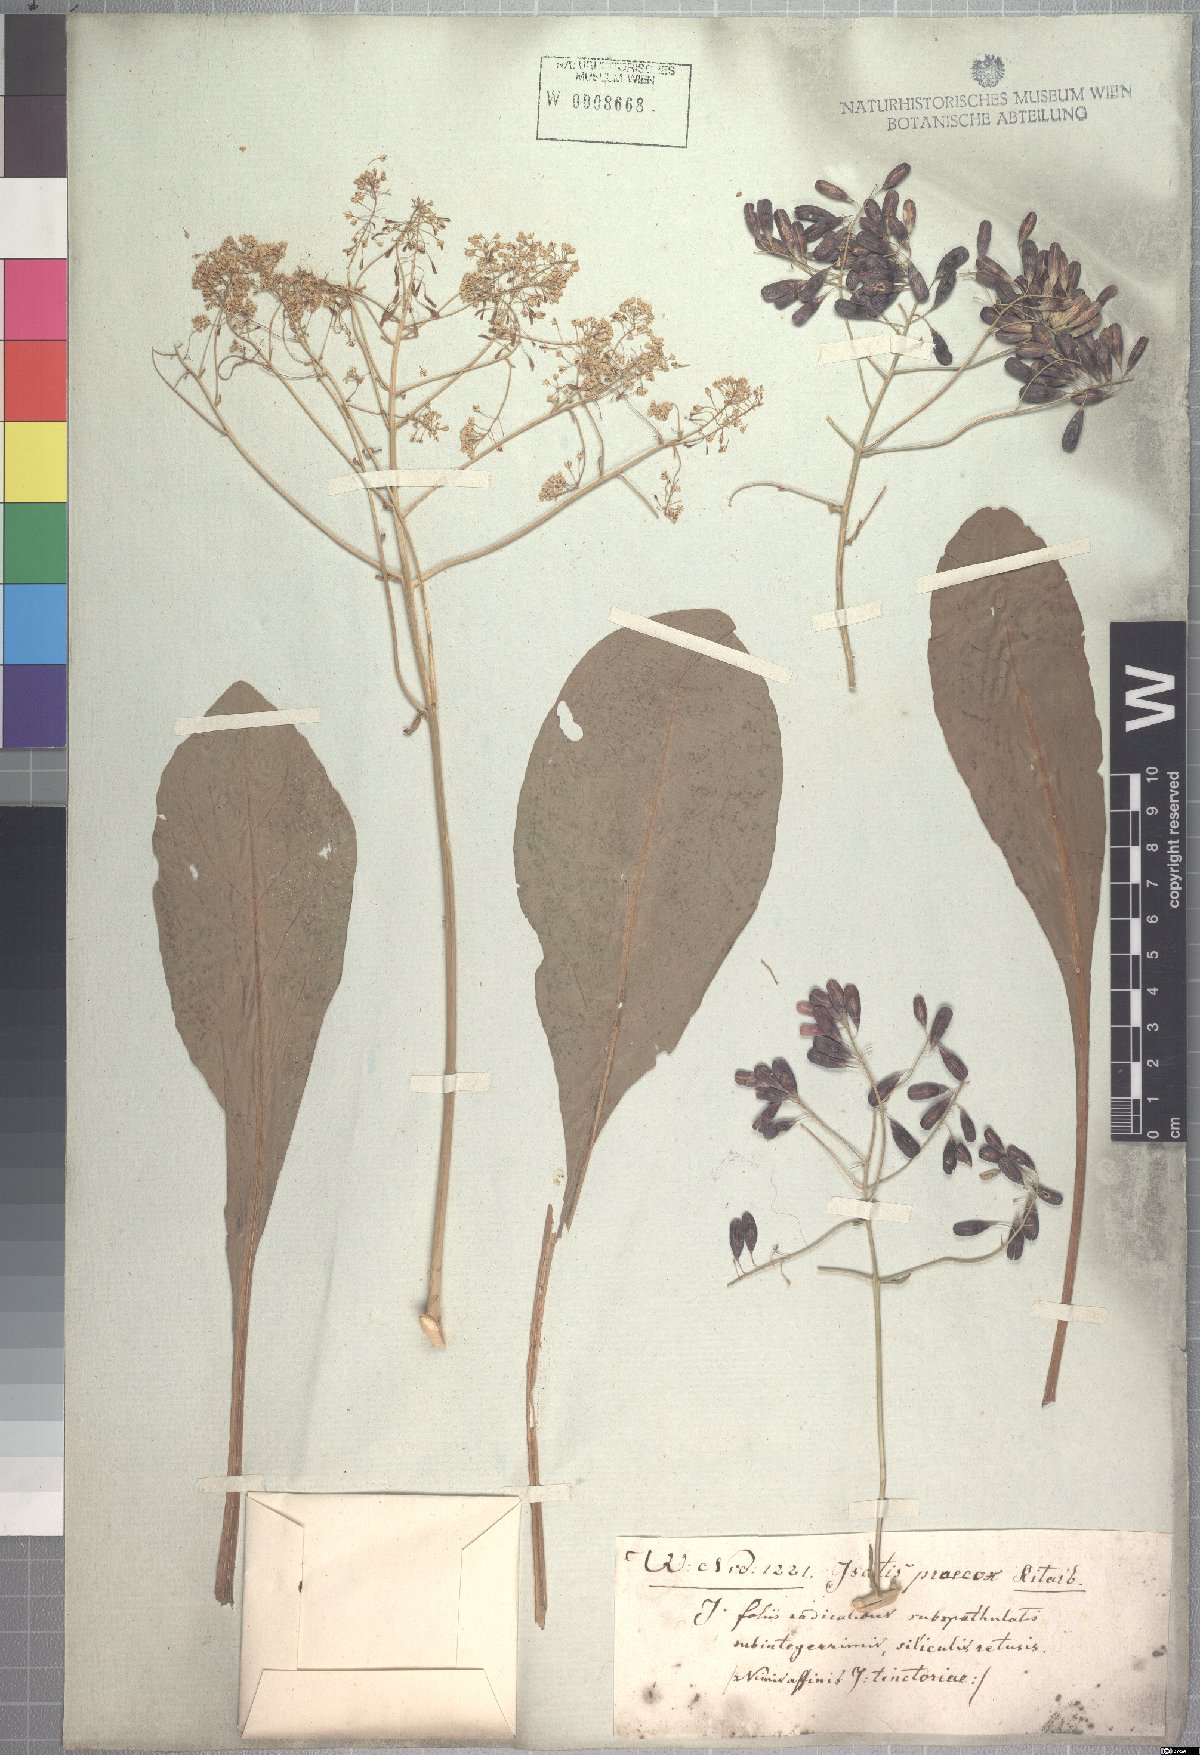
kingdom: Plantae
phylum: Tracheophyta
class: Magnoliopsida
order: Brassicales
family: Brassicaceae
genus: Isatis
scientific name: Isatis tinctoria
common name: Woad
